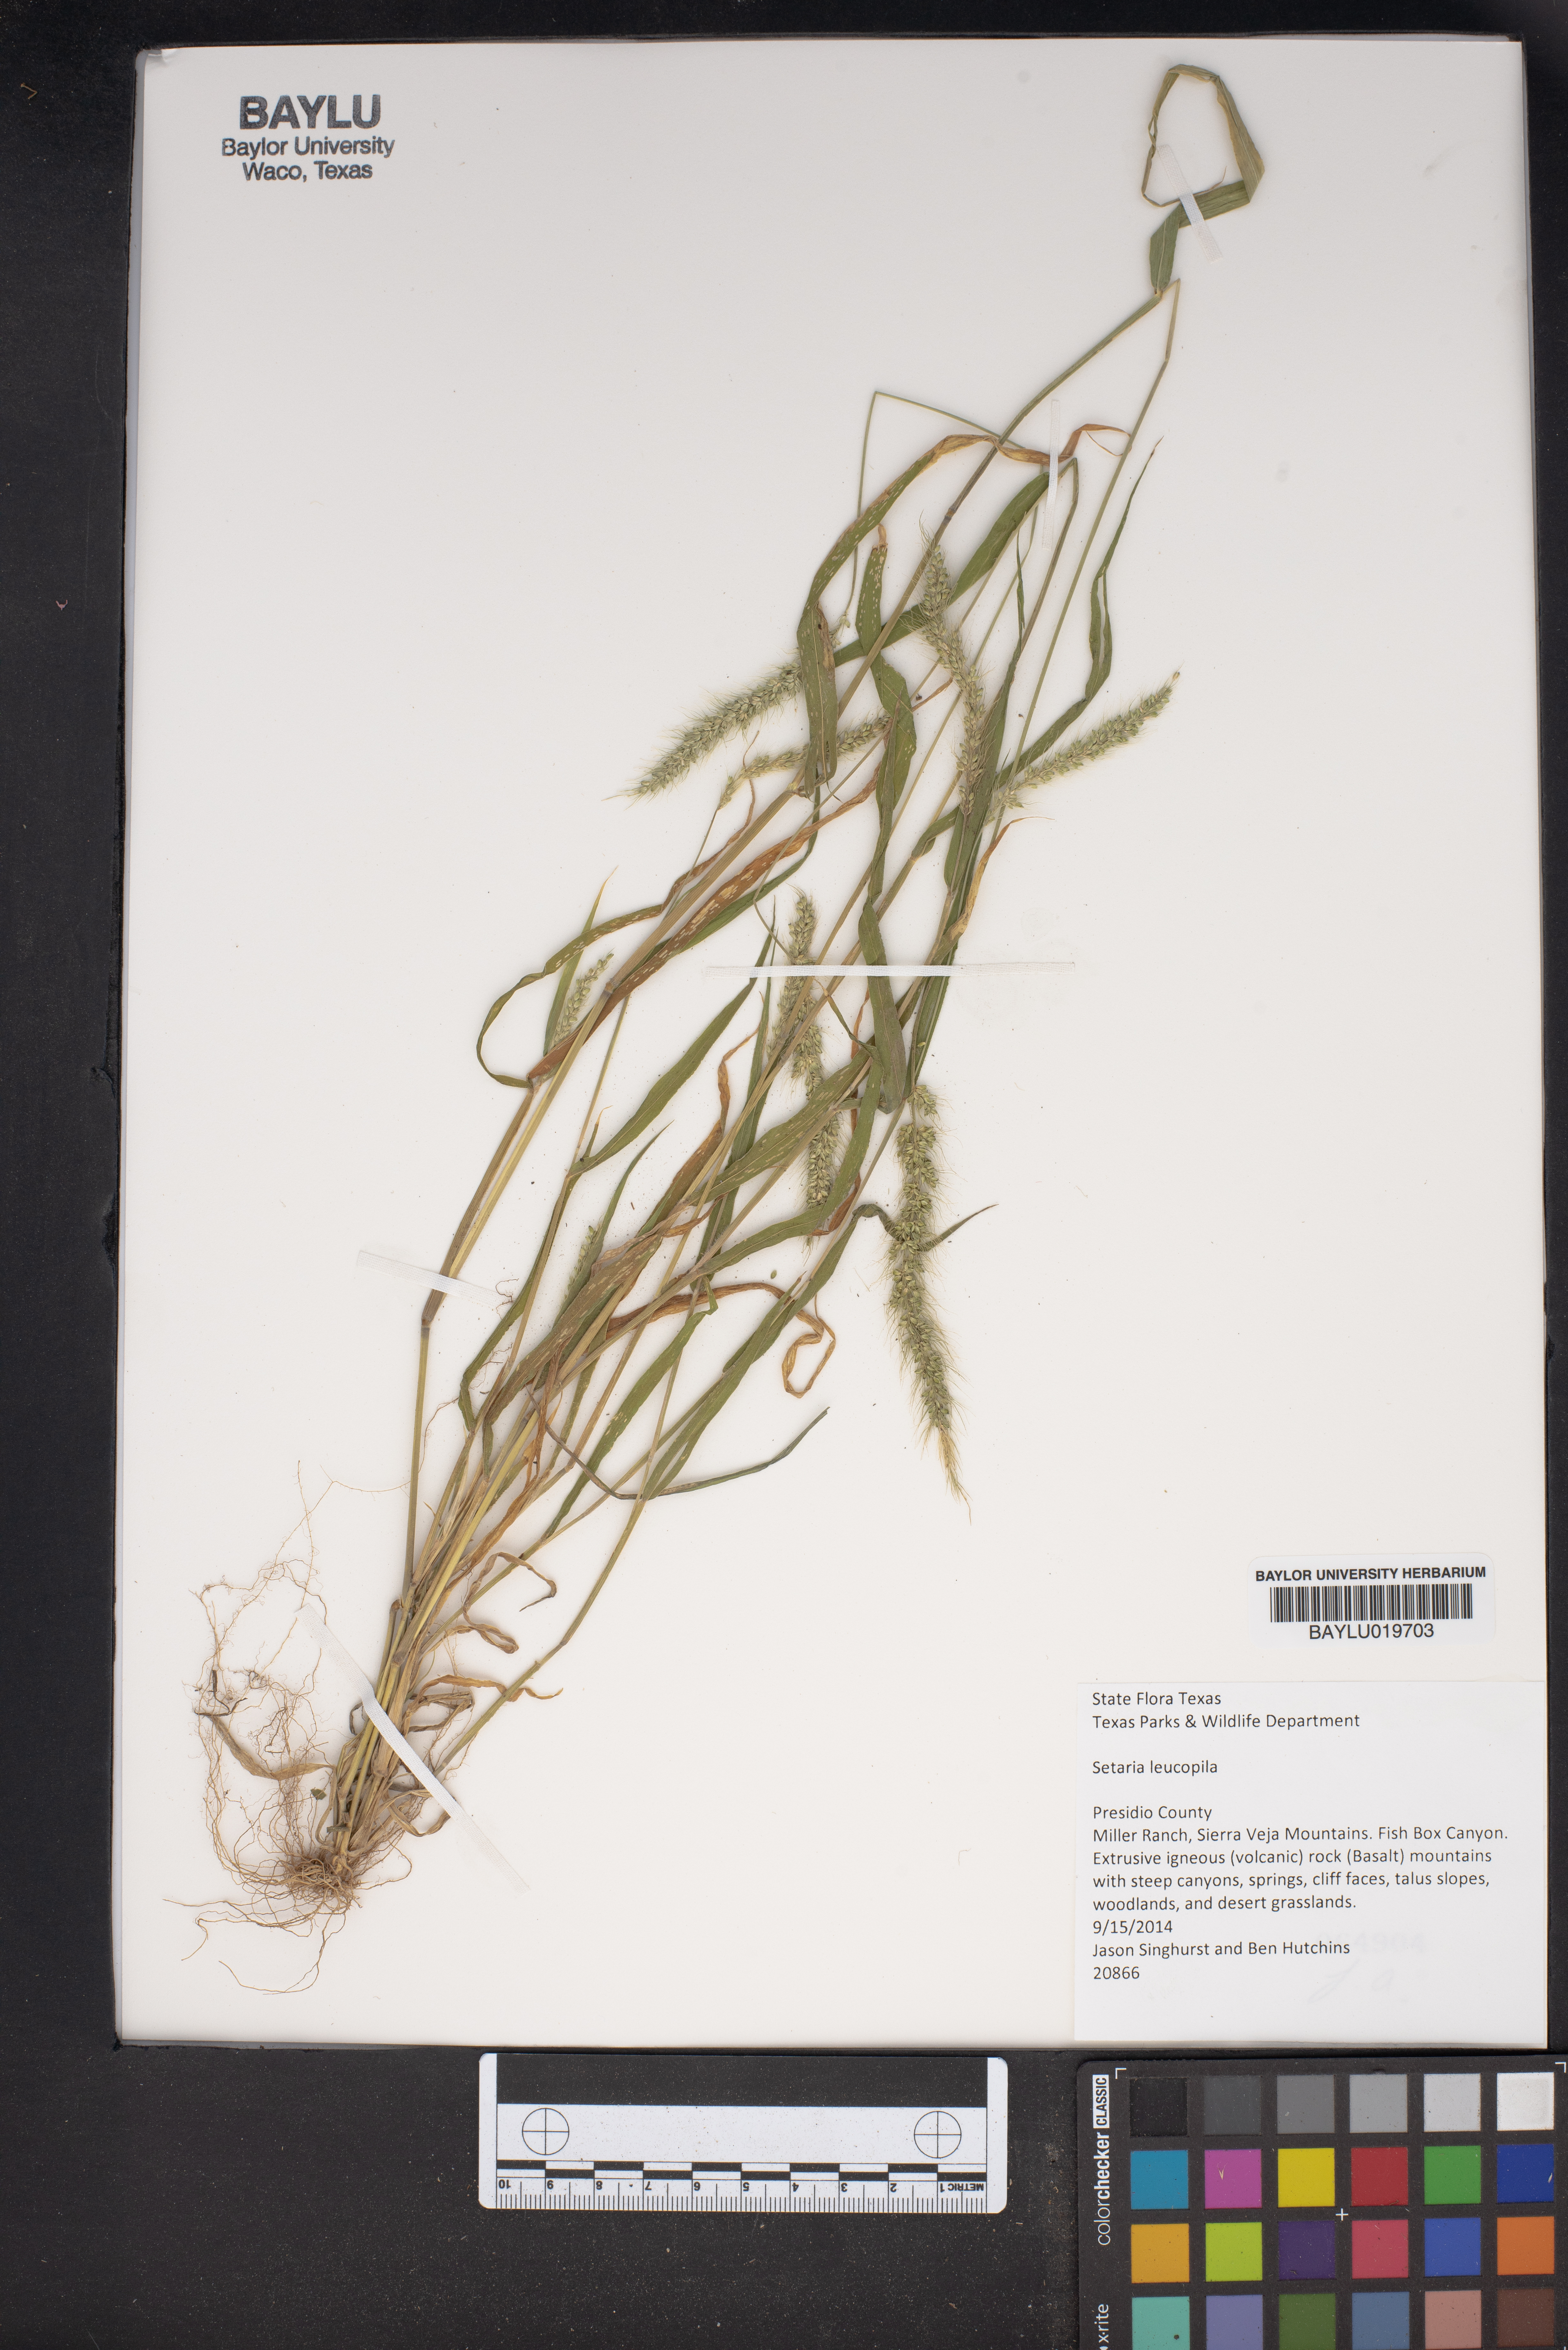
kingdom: Plantae
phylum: Tracheophyta
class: Liliopsida
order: Poales
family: Poaceae
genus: Setaria
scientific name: Setaria leucopila
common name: Plains bristle grass
